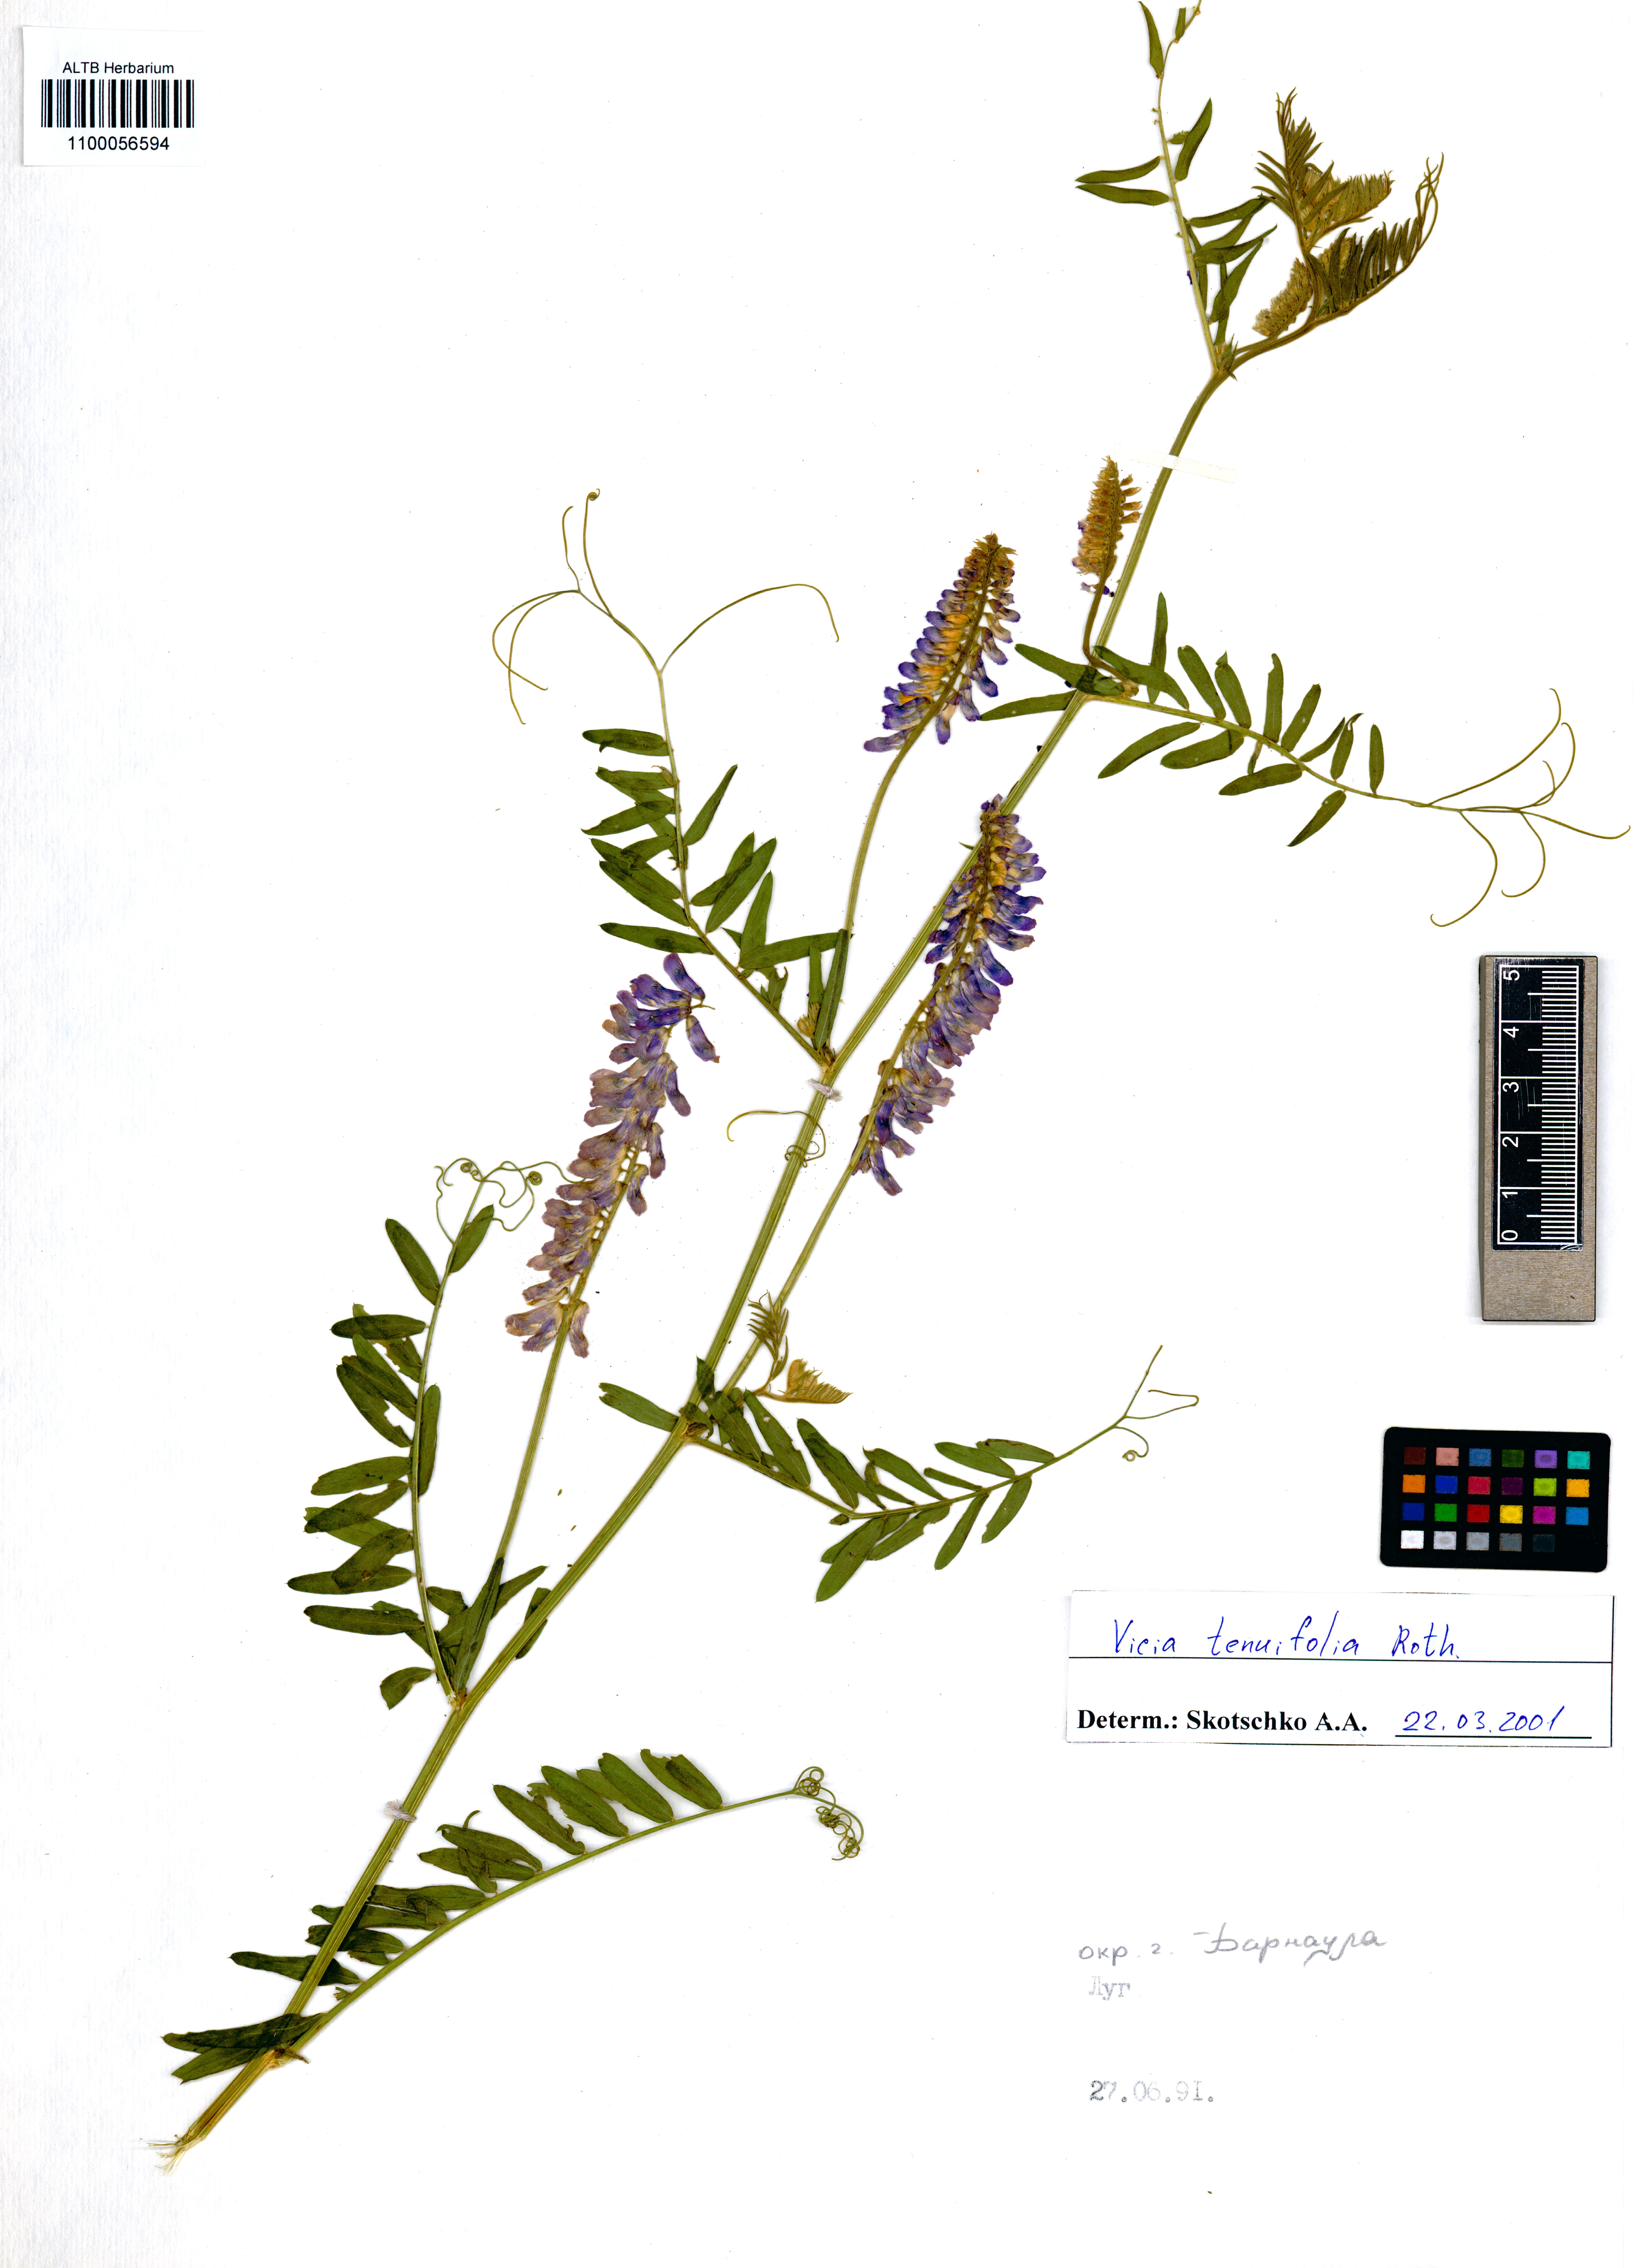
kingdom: Plantae
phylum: Tracheophyta
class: Magnoliopsida
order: Fabales
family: Fabaceae
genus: Vicia
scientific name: Vicia tenuifolia
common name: Fine-leaved vetch
